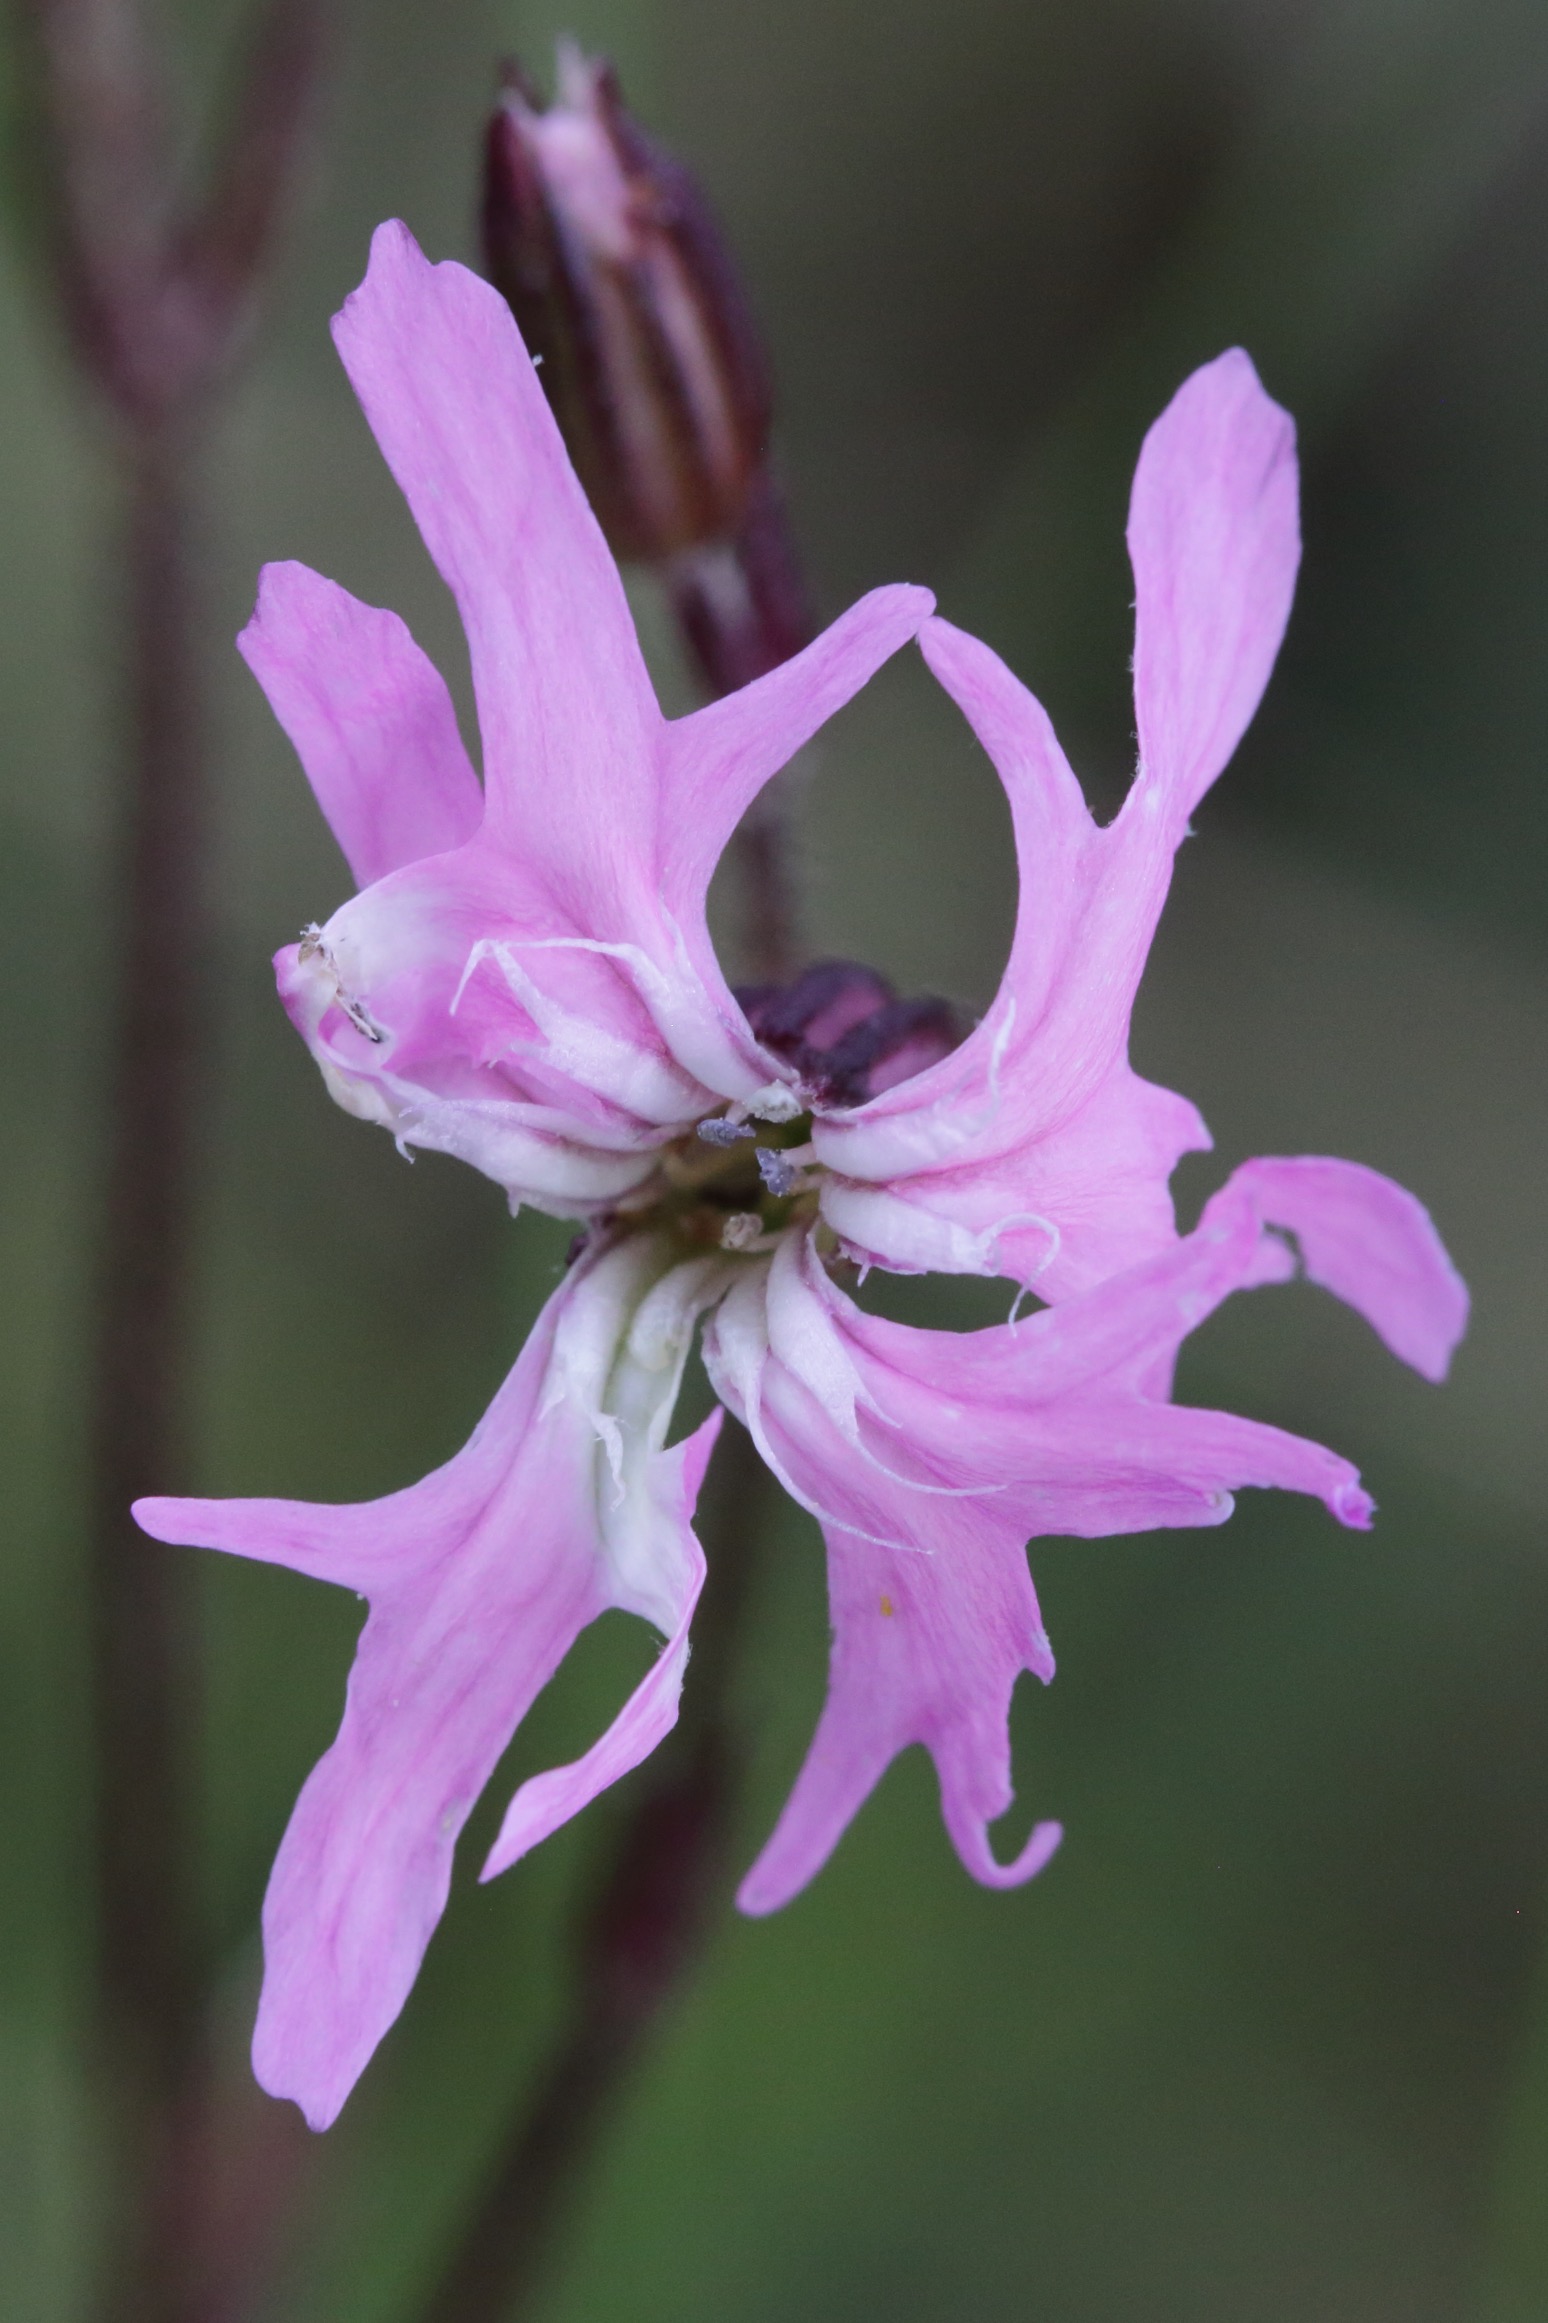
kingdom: Plantae
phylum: Tracheophyta
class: Magnoliopsida
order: Caryophyllales
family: Caryophyllaceae
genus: Silene
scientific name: Silene flos-cuculi
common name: Trævlekrone
